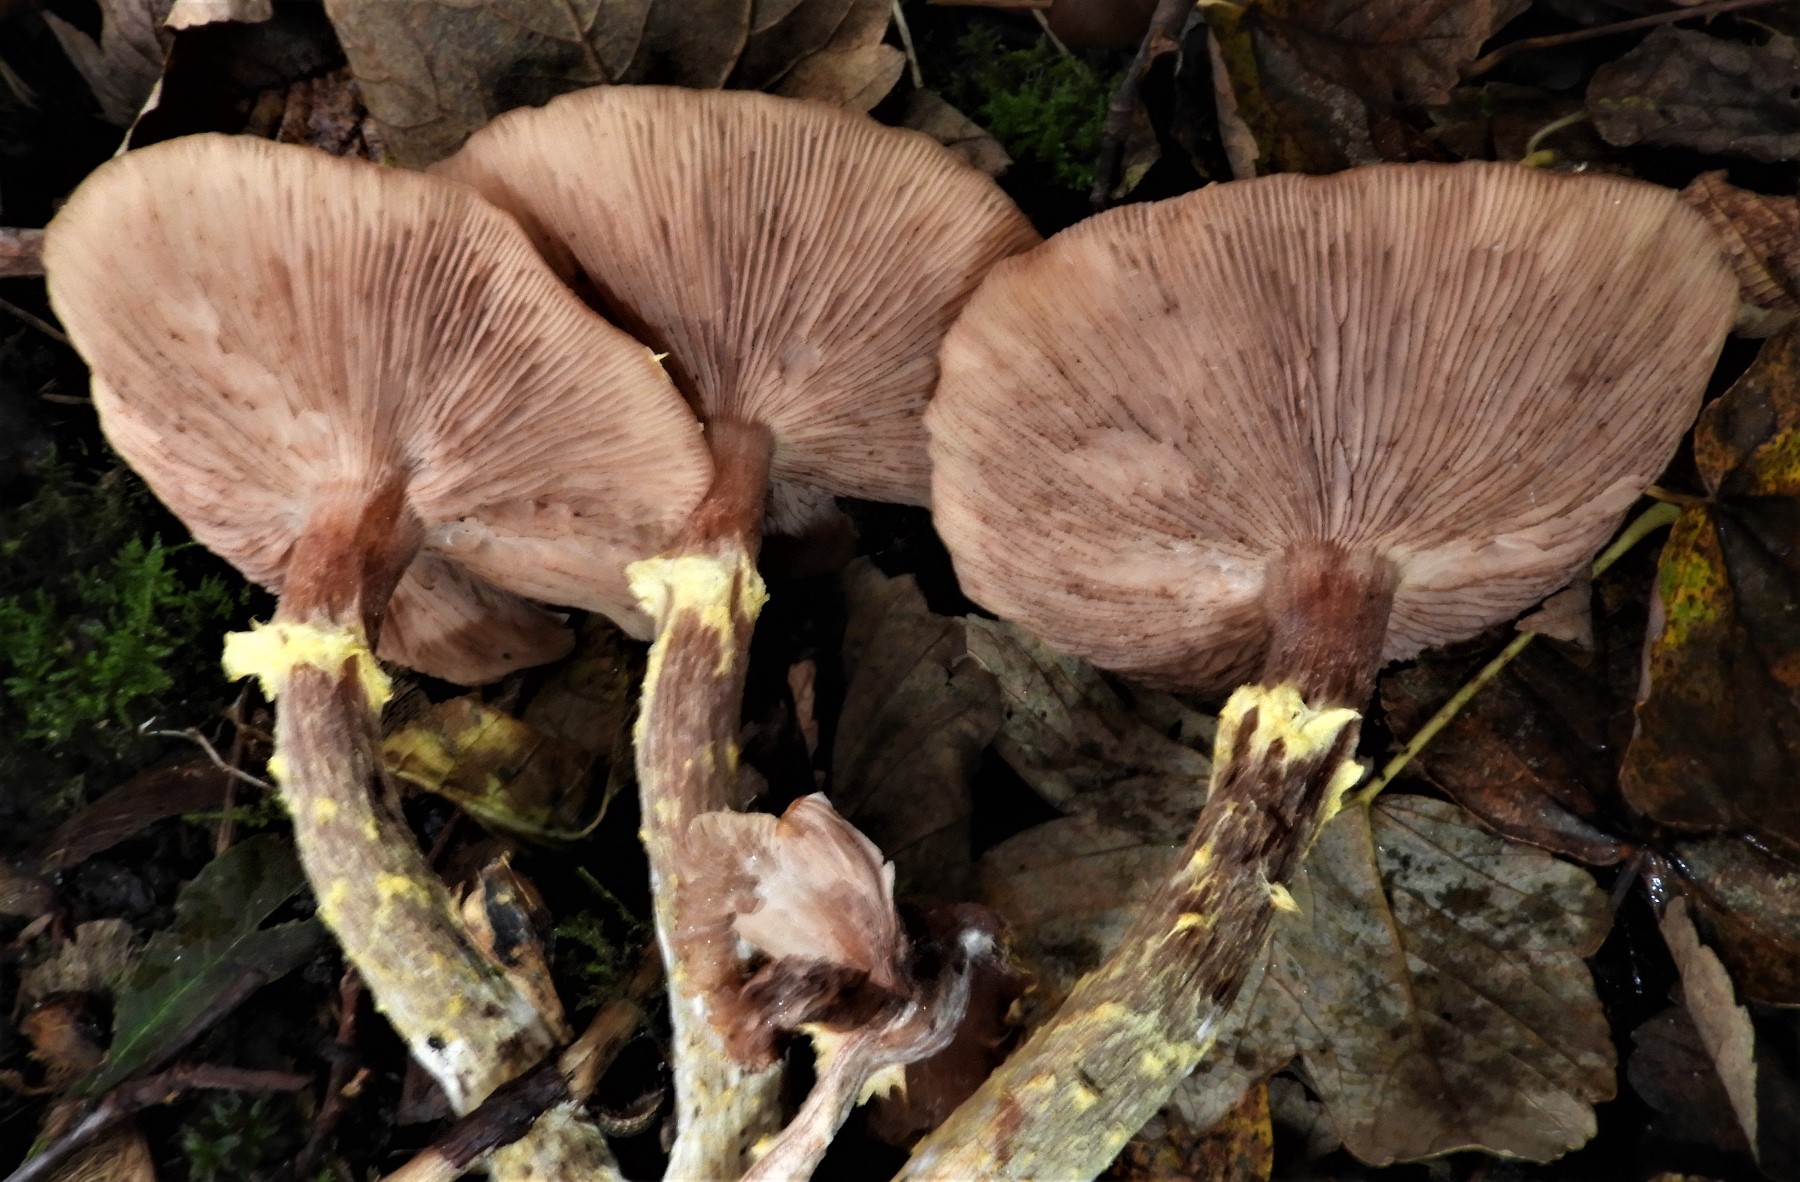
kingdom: Fungi
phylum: Basidiomycota
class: Agaricomycetes
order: Agaricales
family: Physalacriaceae
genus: Armillaria
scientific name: Armillaria lutea
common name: køllestokket honningsvamp
